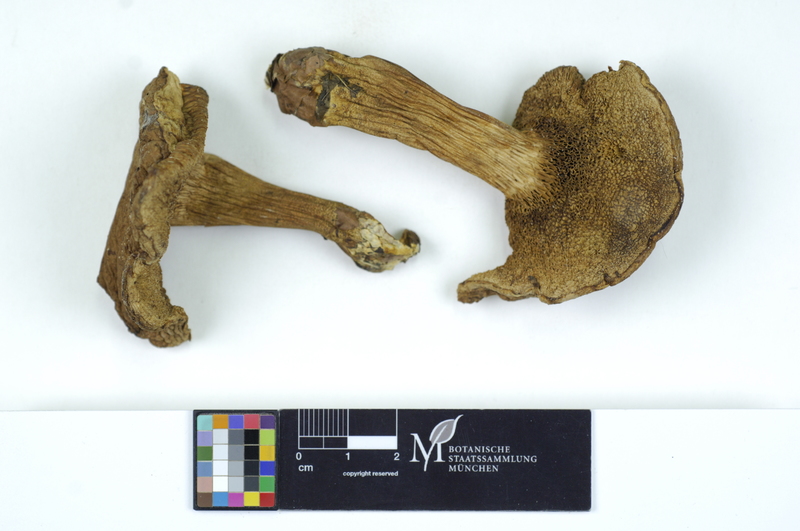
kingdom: Fungi
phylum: Basidiomycota
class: Agaricomycetes
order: Boletales
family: Boletaceae
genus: Hortiboletus
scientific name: Hortiboletus rubellus
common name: Ruby bolete
